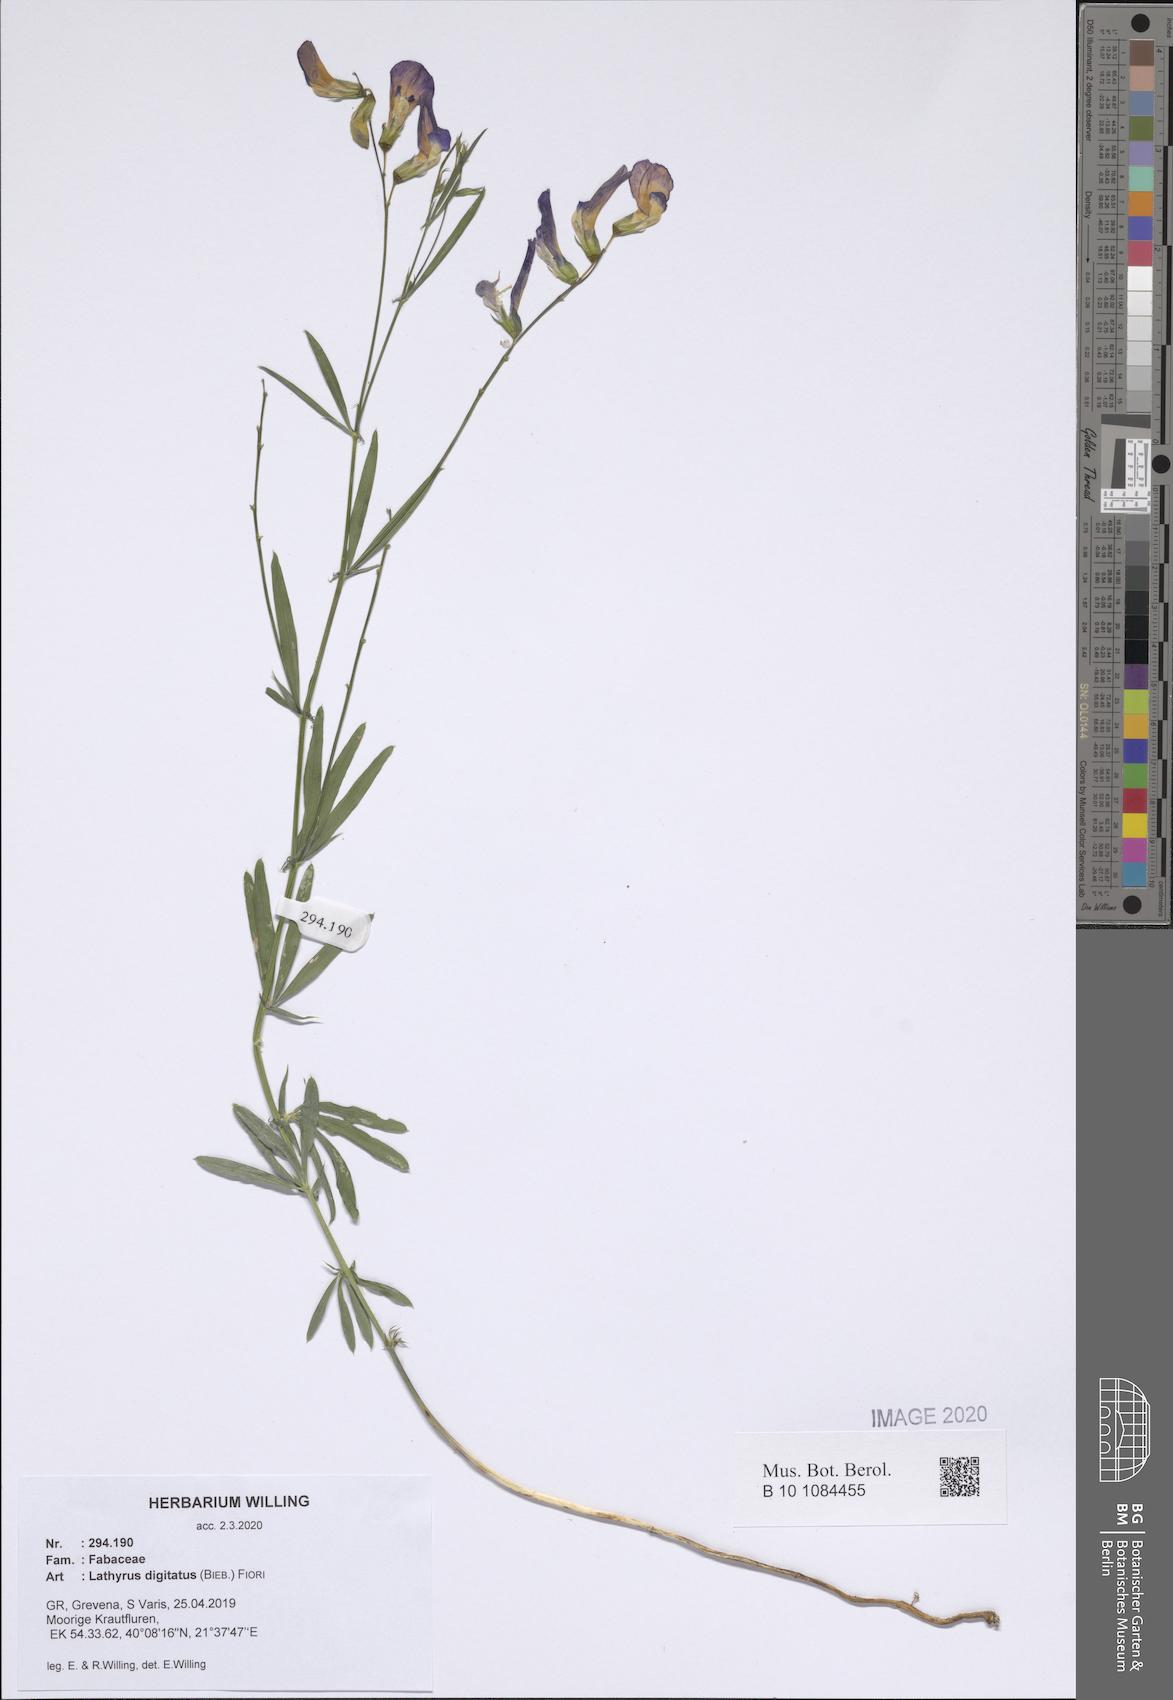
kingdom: Plantae
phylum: Tracheophyta
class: Magnoliopsida
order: Fabales
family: Fabaceae
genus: Lathyrus
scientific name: Lathyrus digitatus
